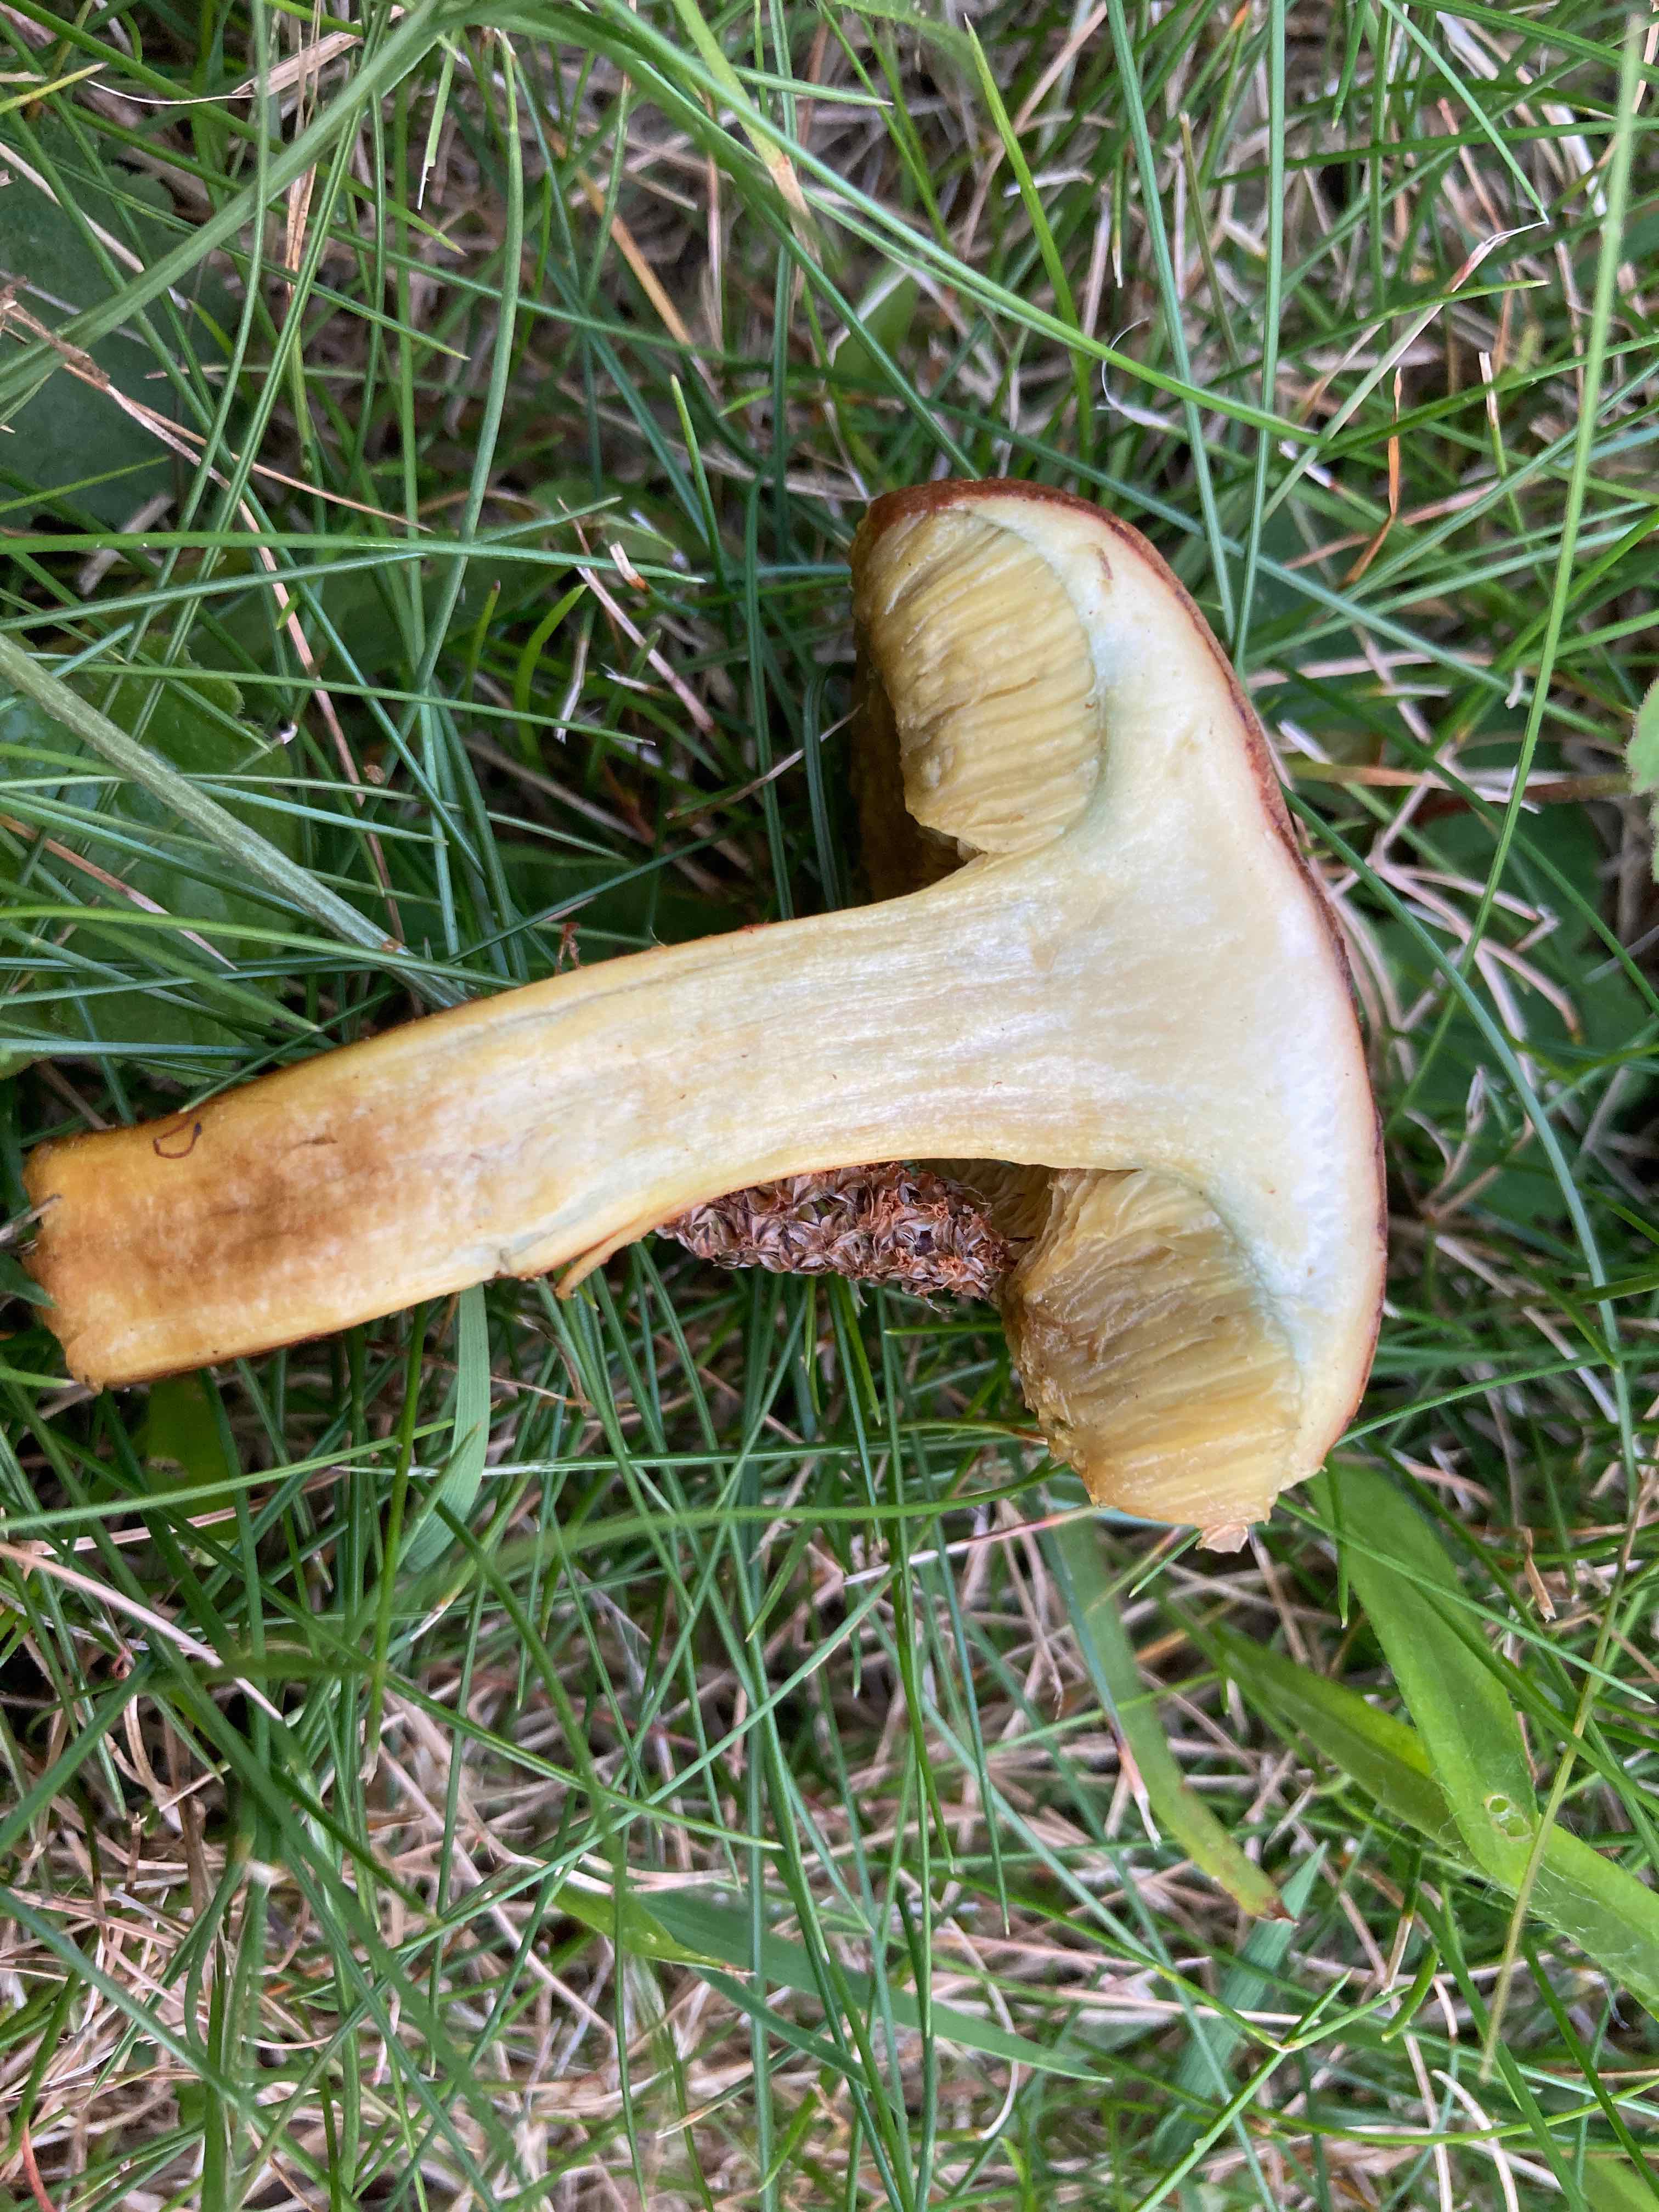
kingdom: Fungi
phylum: Basidiomycota
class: Agaricomycetes
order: Boletales
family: Boletaceae
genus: Imleria
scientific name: Imleria badia
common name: brunstokket rørhat
